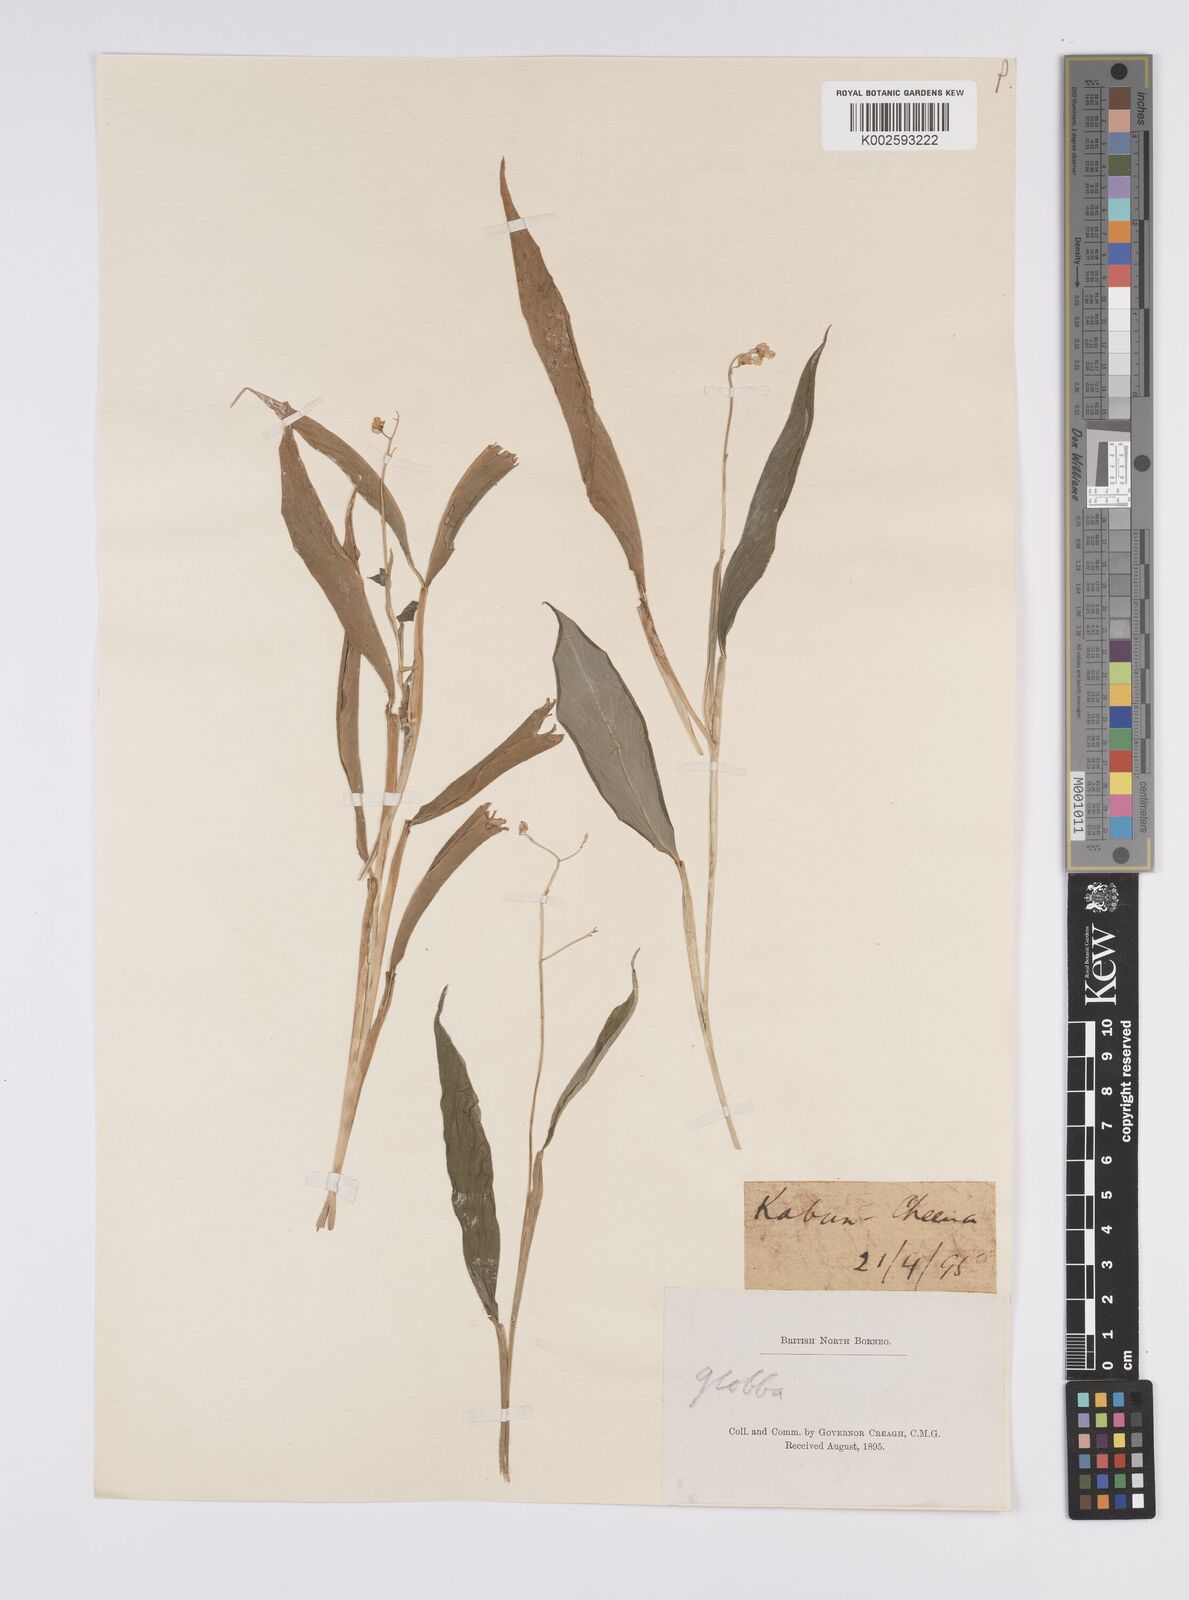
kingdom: Plantae
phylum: Tracheophyta
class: Liliopsida
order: Zingiberales
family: Zingiberaceae
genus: Globba
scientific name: Globba
